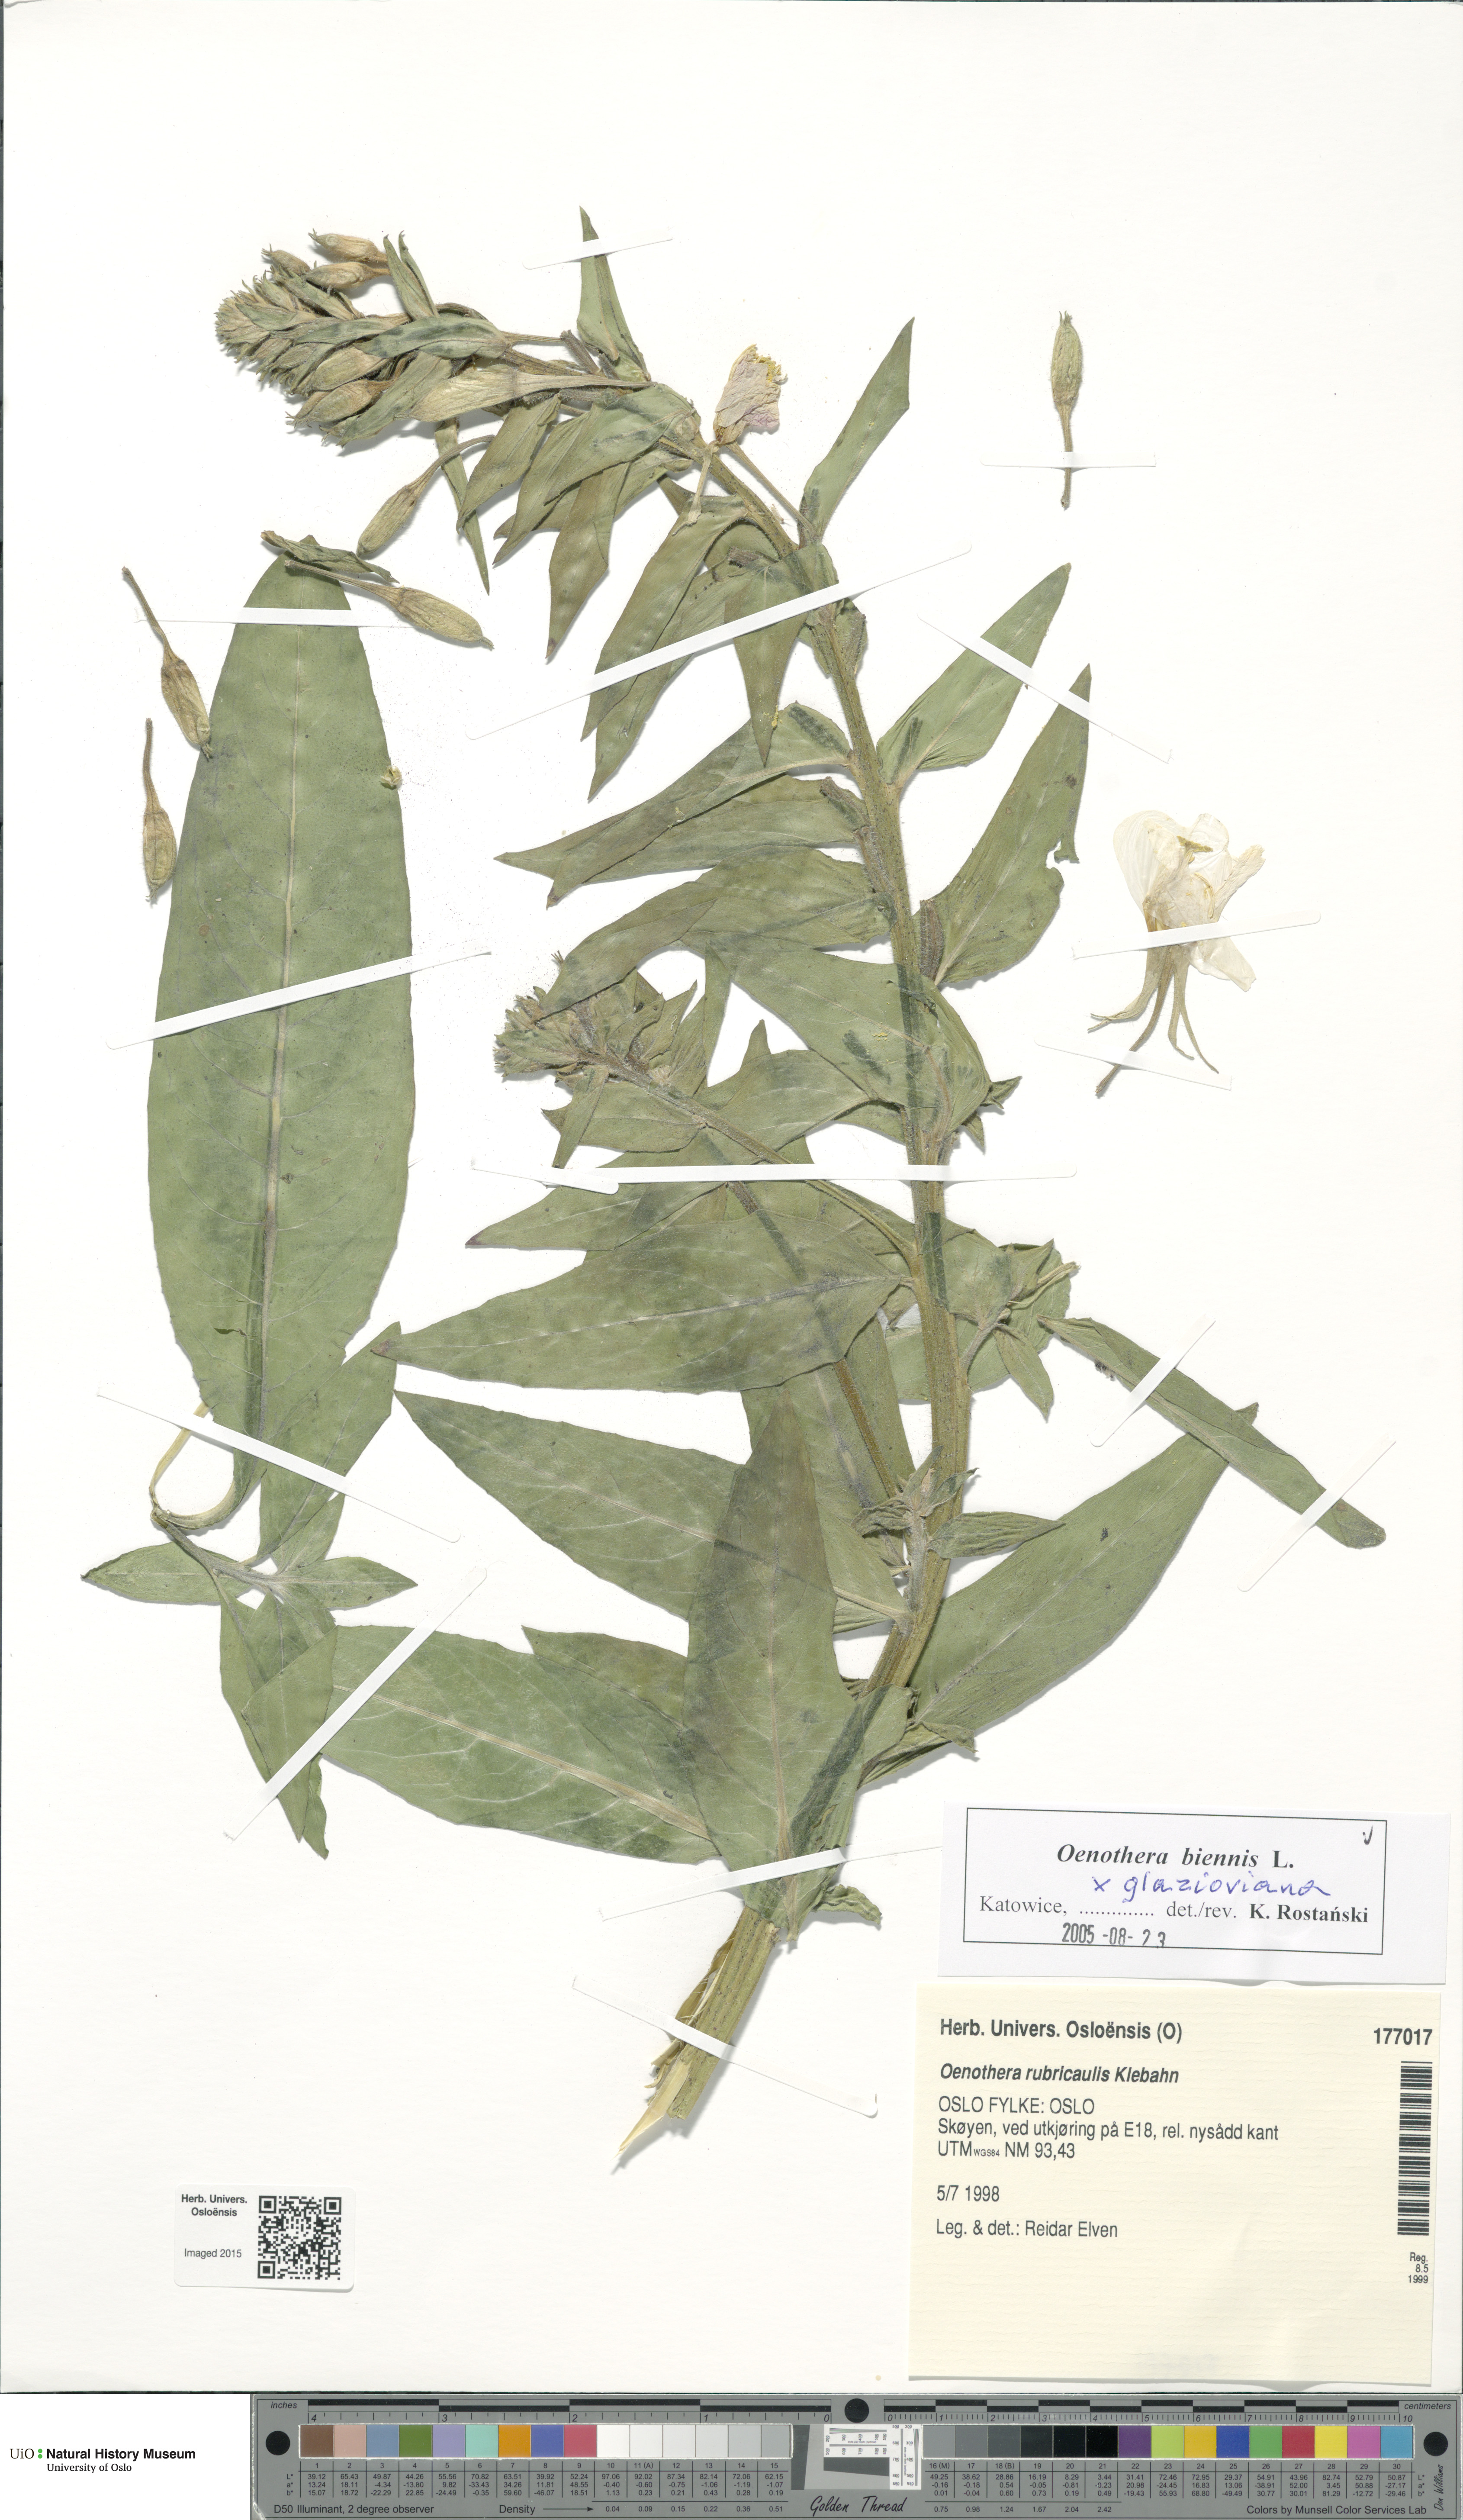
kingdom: Plantae
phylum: Tracheophyta
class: Magnoliopsida
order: Myrtales
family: Onagraceae
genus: Oenothera
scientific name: Oenothera
